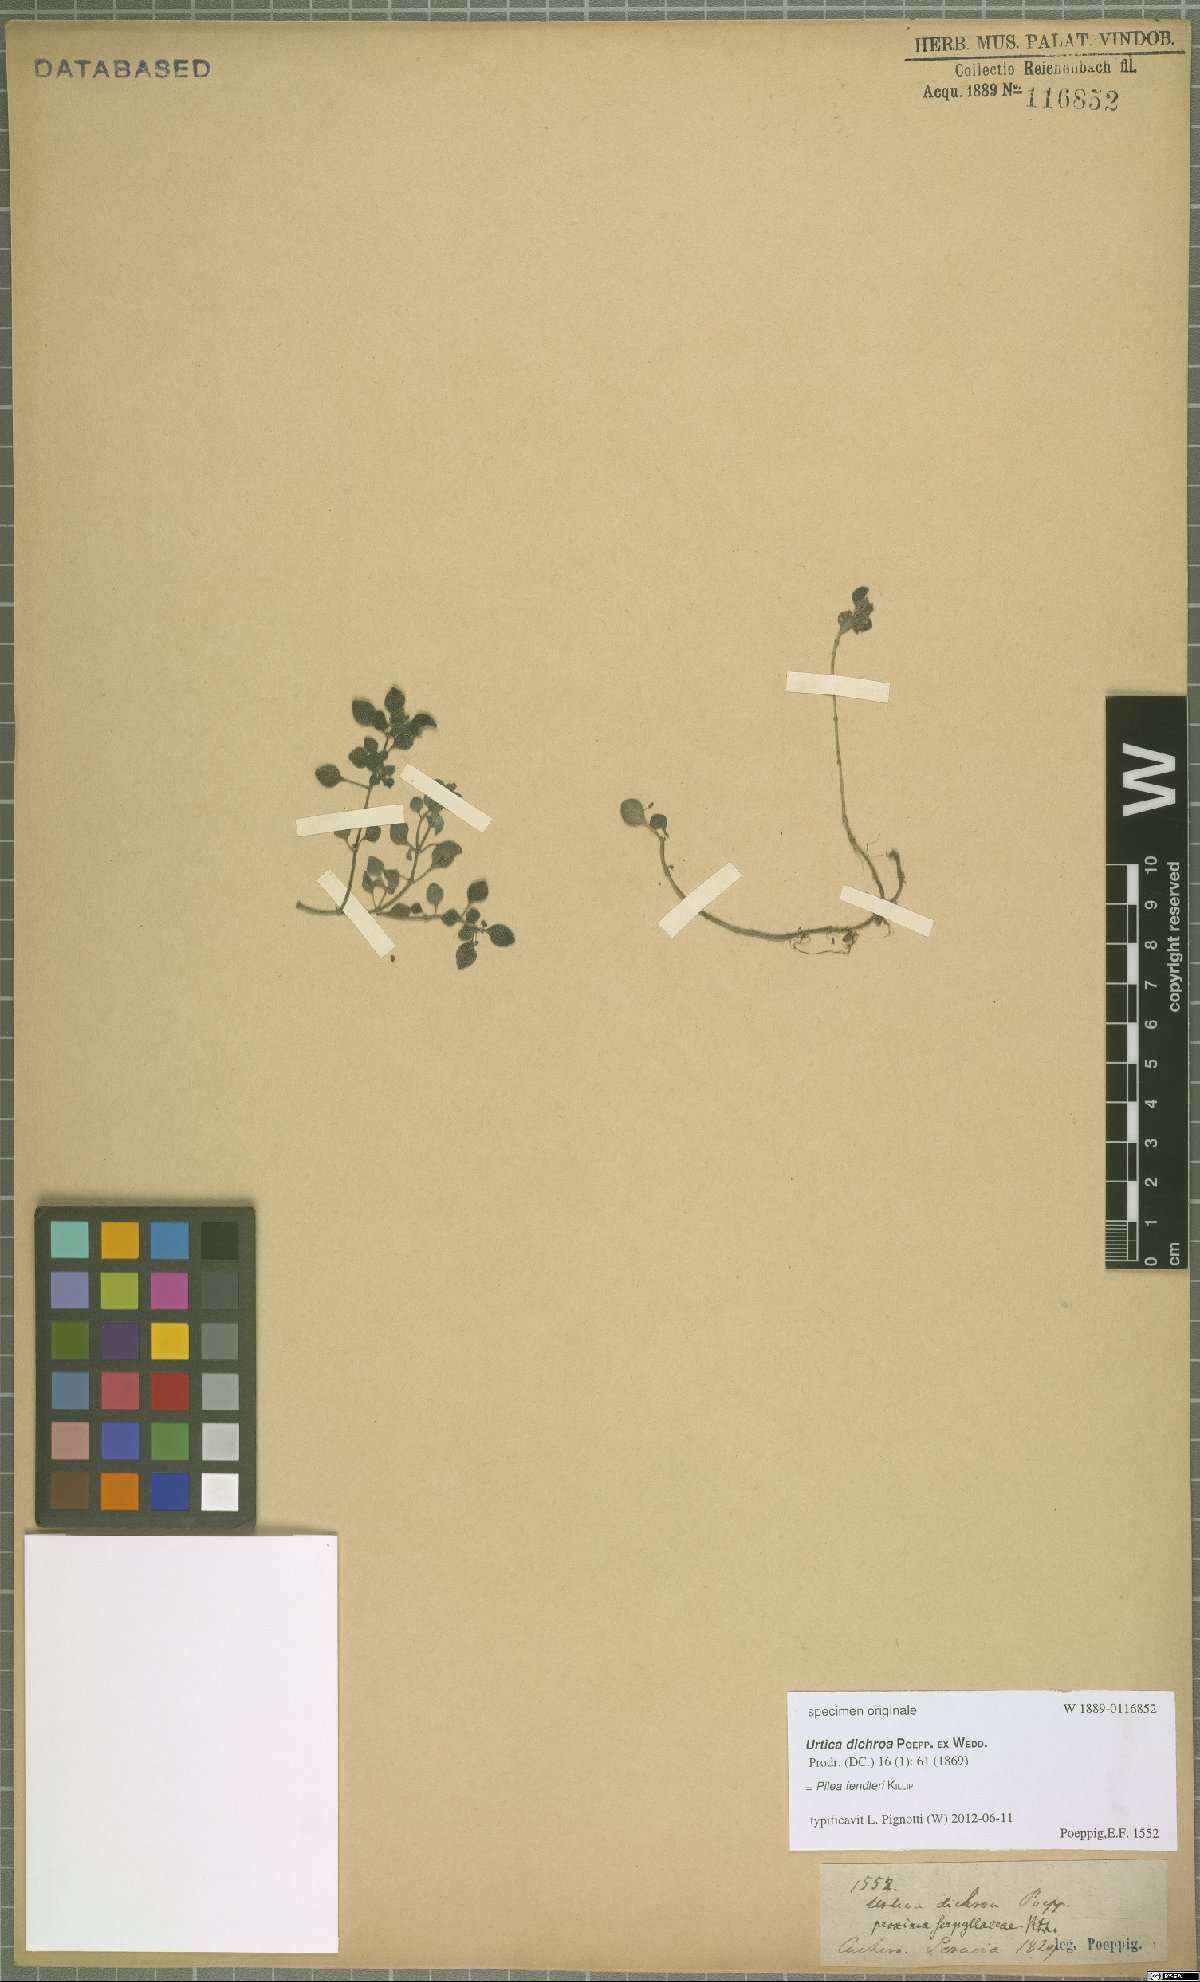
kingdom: Plantae
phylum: Tracheophyta
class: Magnoliopsida
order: Rosales
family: Urticaceae
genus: Pilea
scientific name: Pilea fendleri
